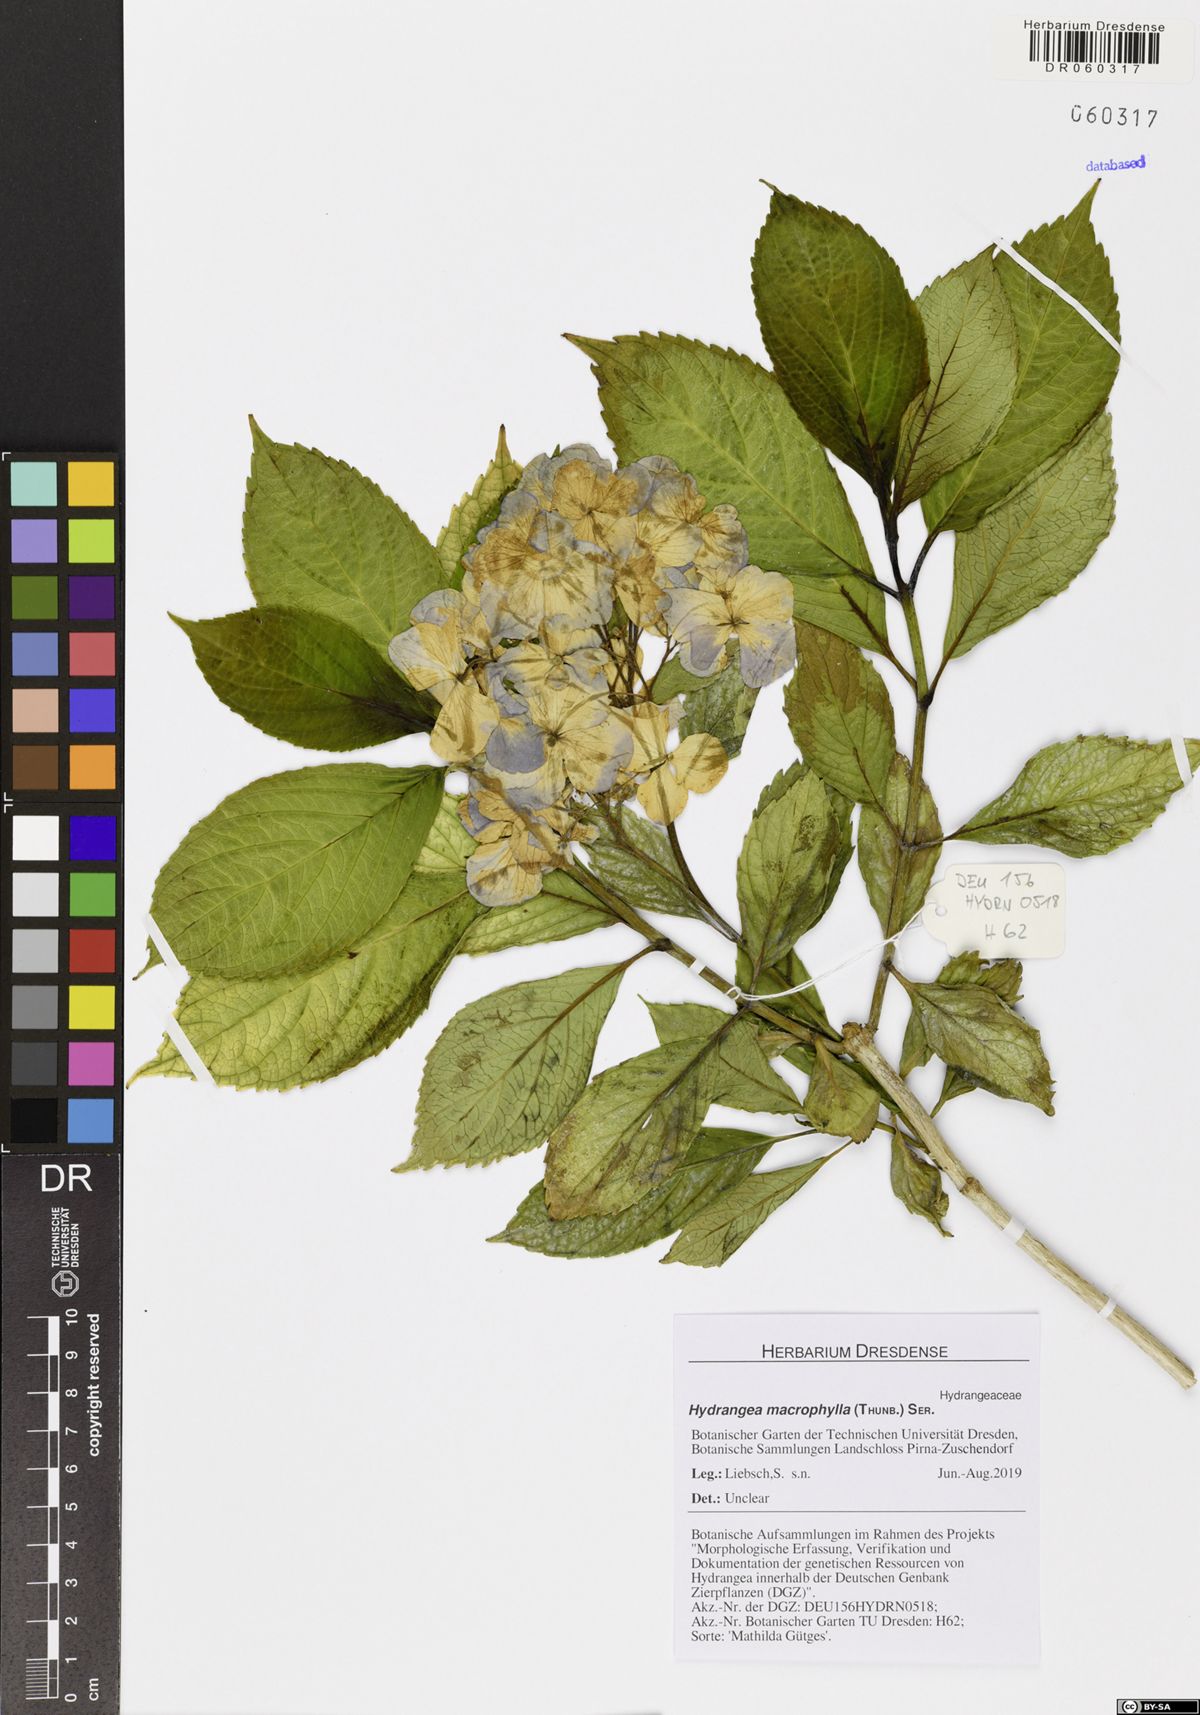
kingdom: Plantae
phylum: Tracheophyta
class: Magnoliopsida
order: Cornales
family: Hydrangeaceae
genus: Hydrangea
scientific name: Hydrangea macrophylla
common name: Hydrangea
